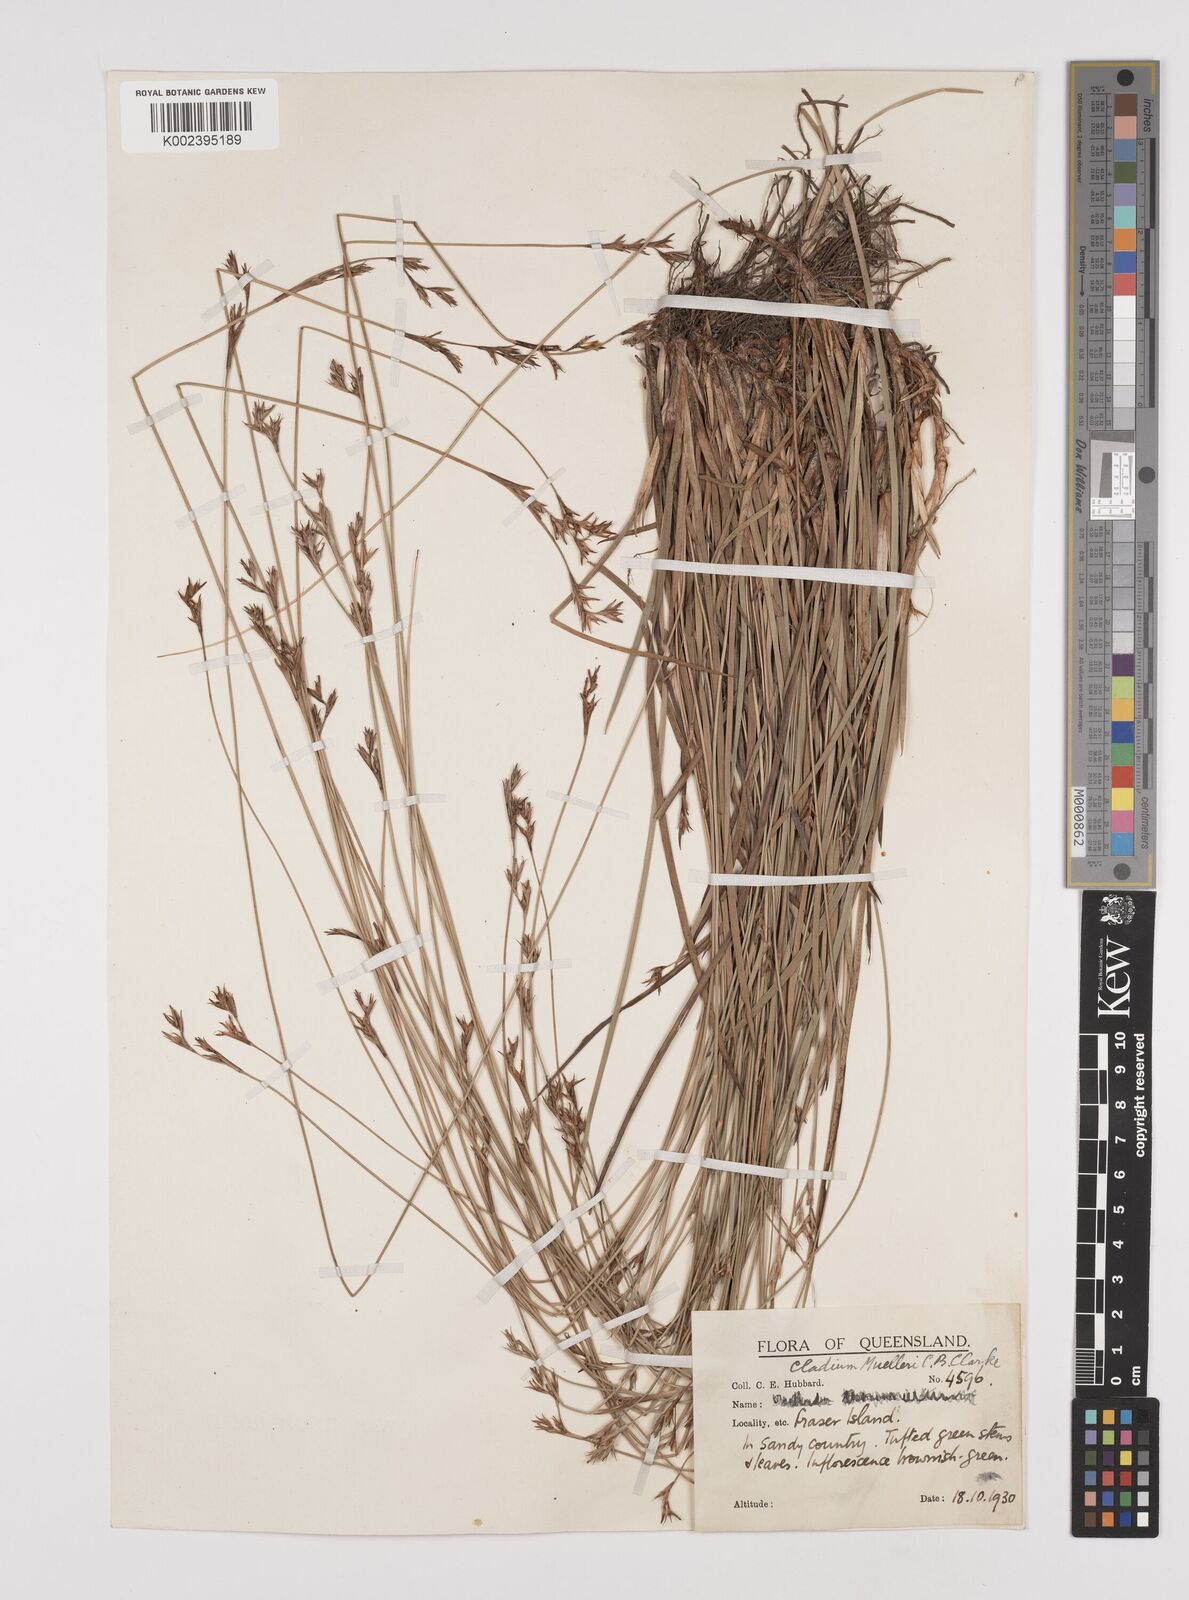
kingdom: Plantae
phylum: Tracheophyta
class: Liliopsida
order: Poales
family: Cyperaceae
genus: Machaerina
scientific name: Machaerina muelleri
